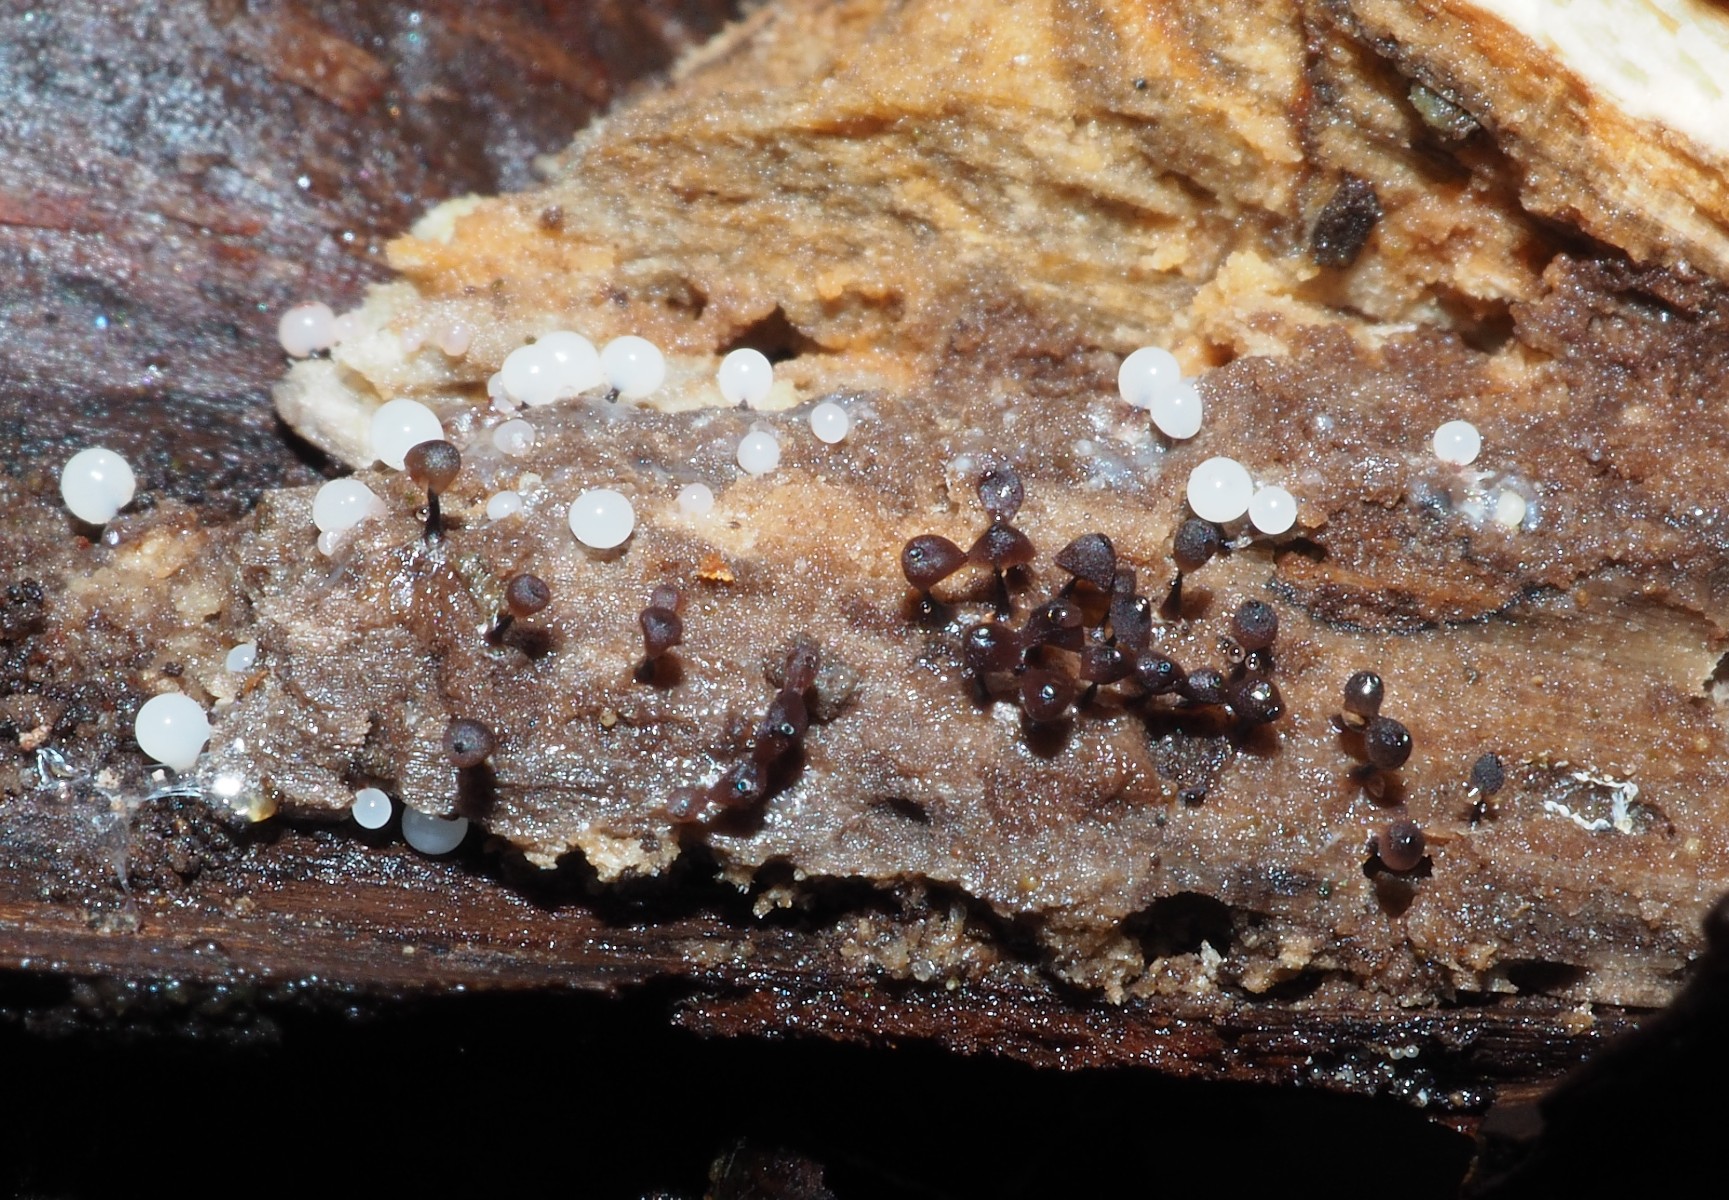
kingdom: Protozoa
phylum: Mycetozoa
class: Myxomycetes
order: Stemonitidales
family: Stemonitidaceae
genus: Enerthenema
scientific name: Enerthenema papillatum
